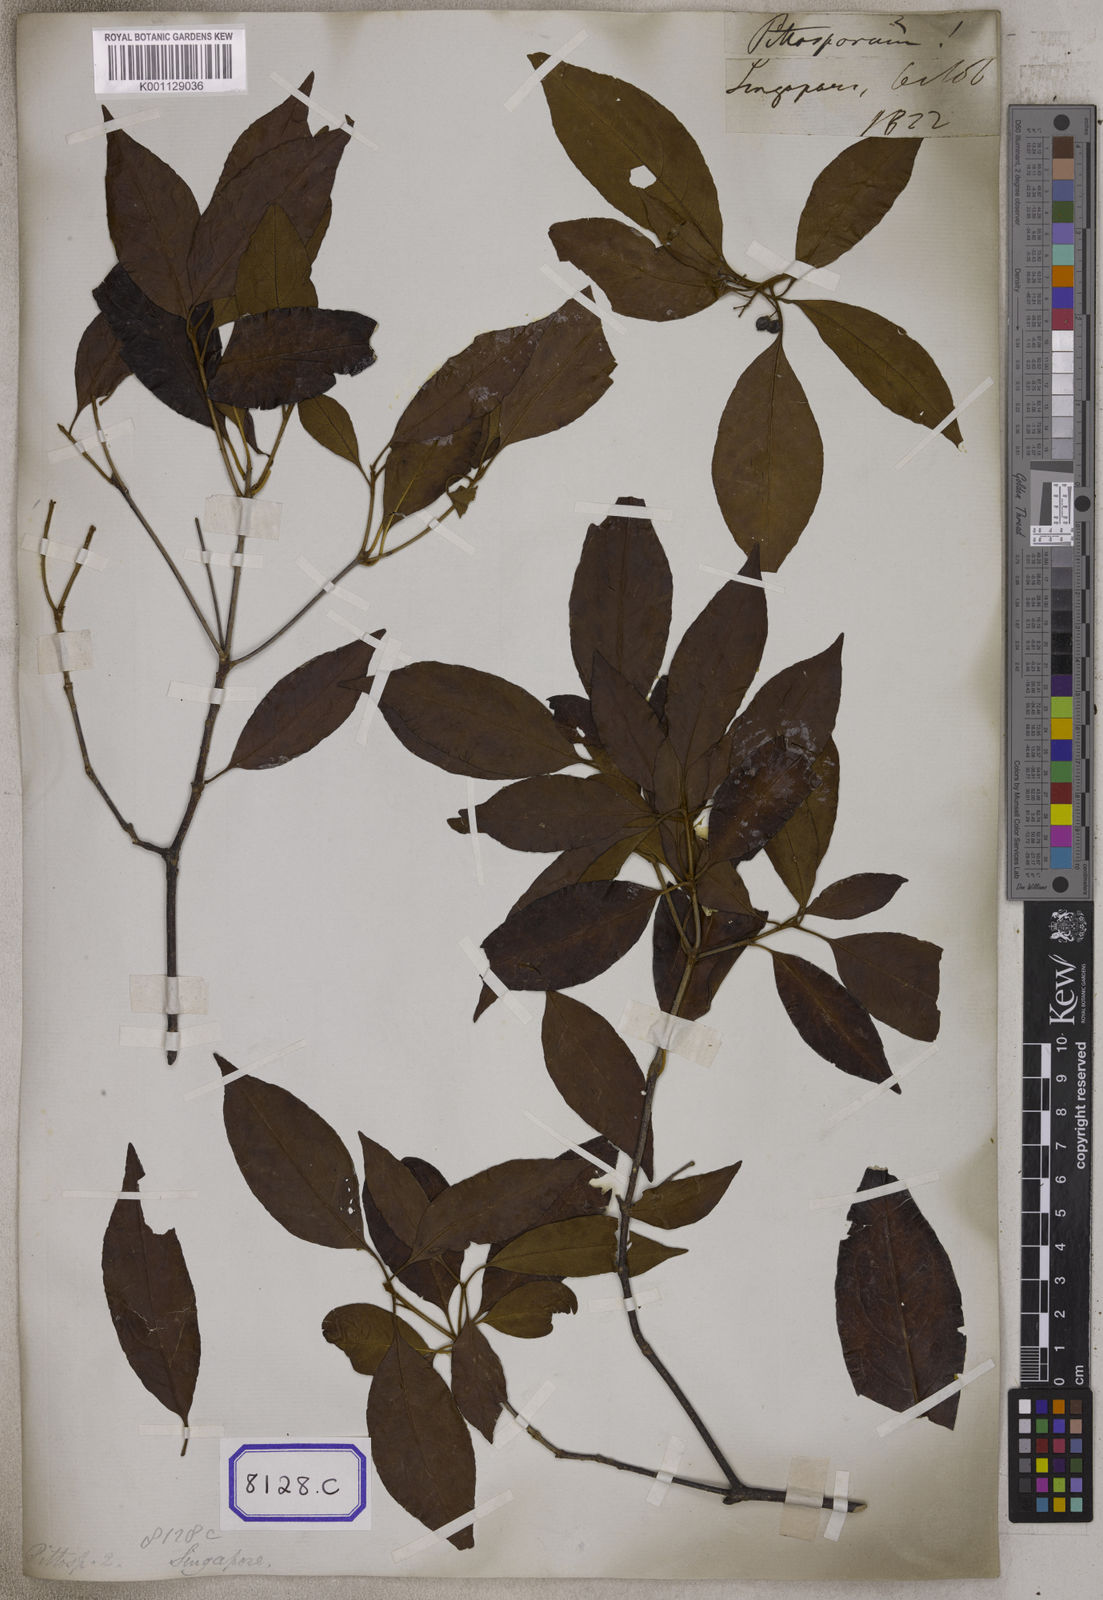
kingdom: Plantae
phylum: Tracheophyta
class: Magnoliopsida
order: Apiales
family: Pittosporaceae
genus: Pittosporum
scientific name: Pittosporum ferrugineum
